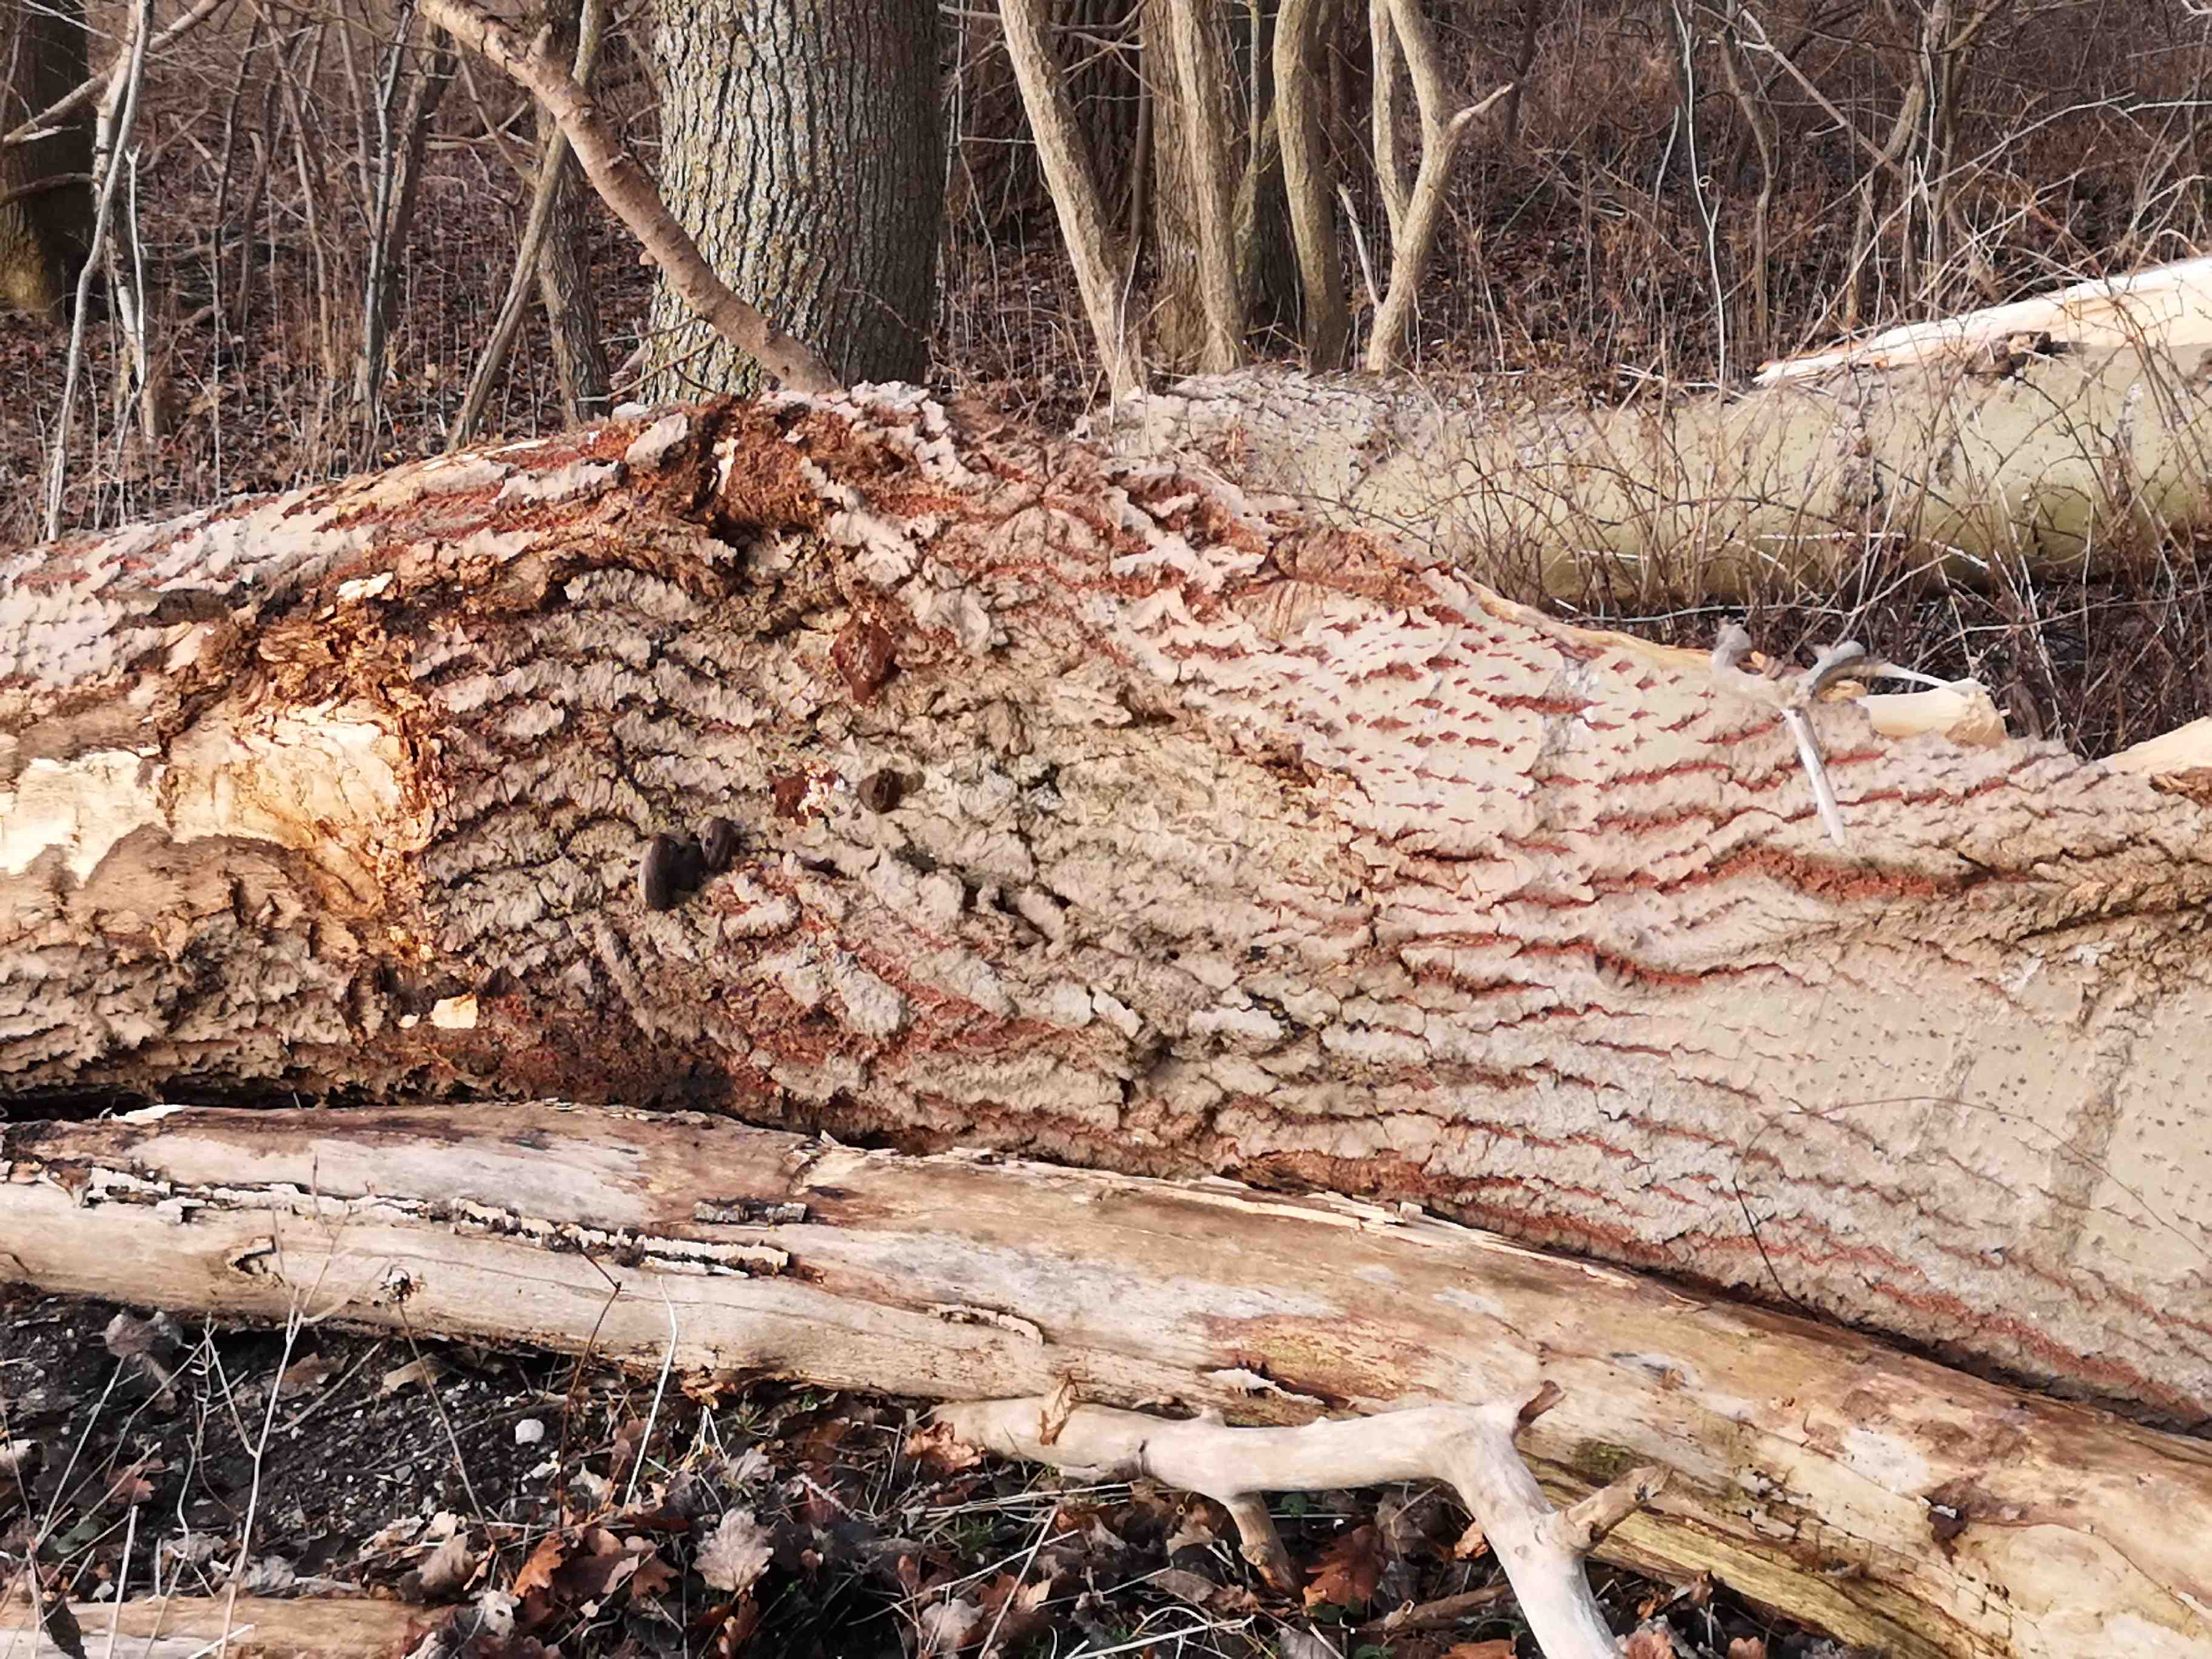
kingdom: Fungi
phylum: Basidiomycota
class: Agaricomycetes
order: Hymenochaetales
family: Hymenochaetaceae
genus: Phellinus
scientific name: Phellinus populicola
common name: poppel-ildporesvamp
